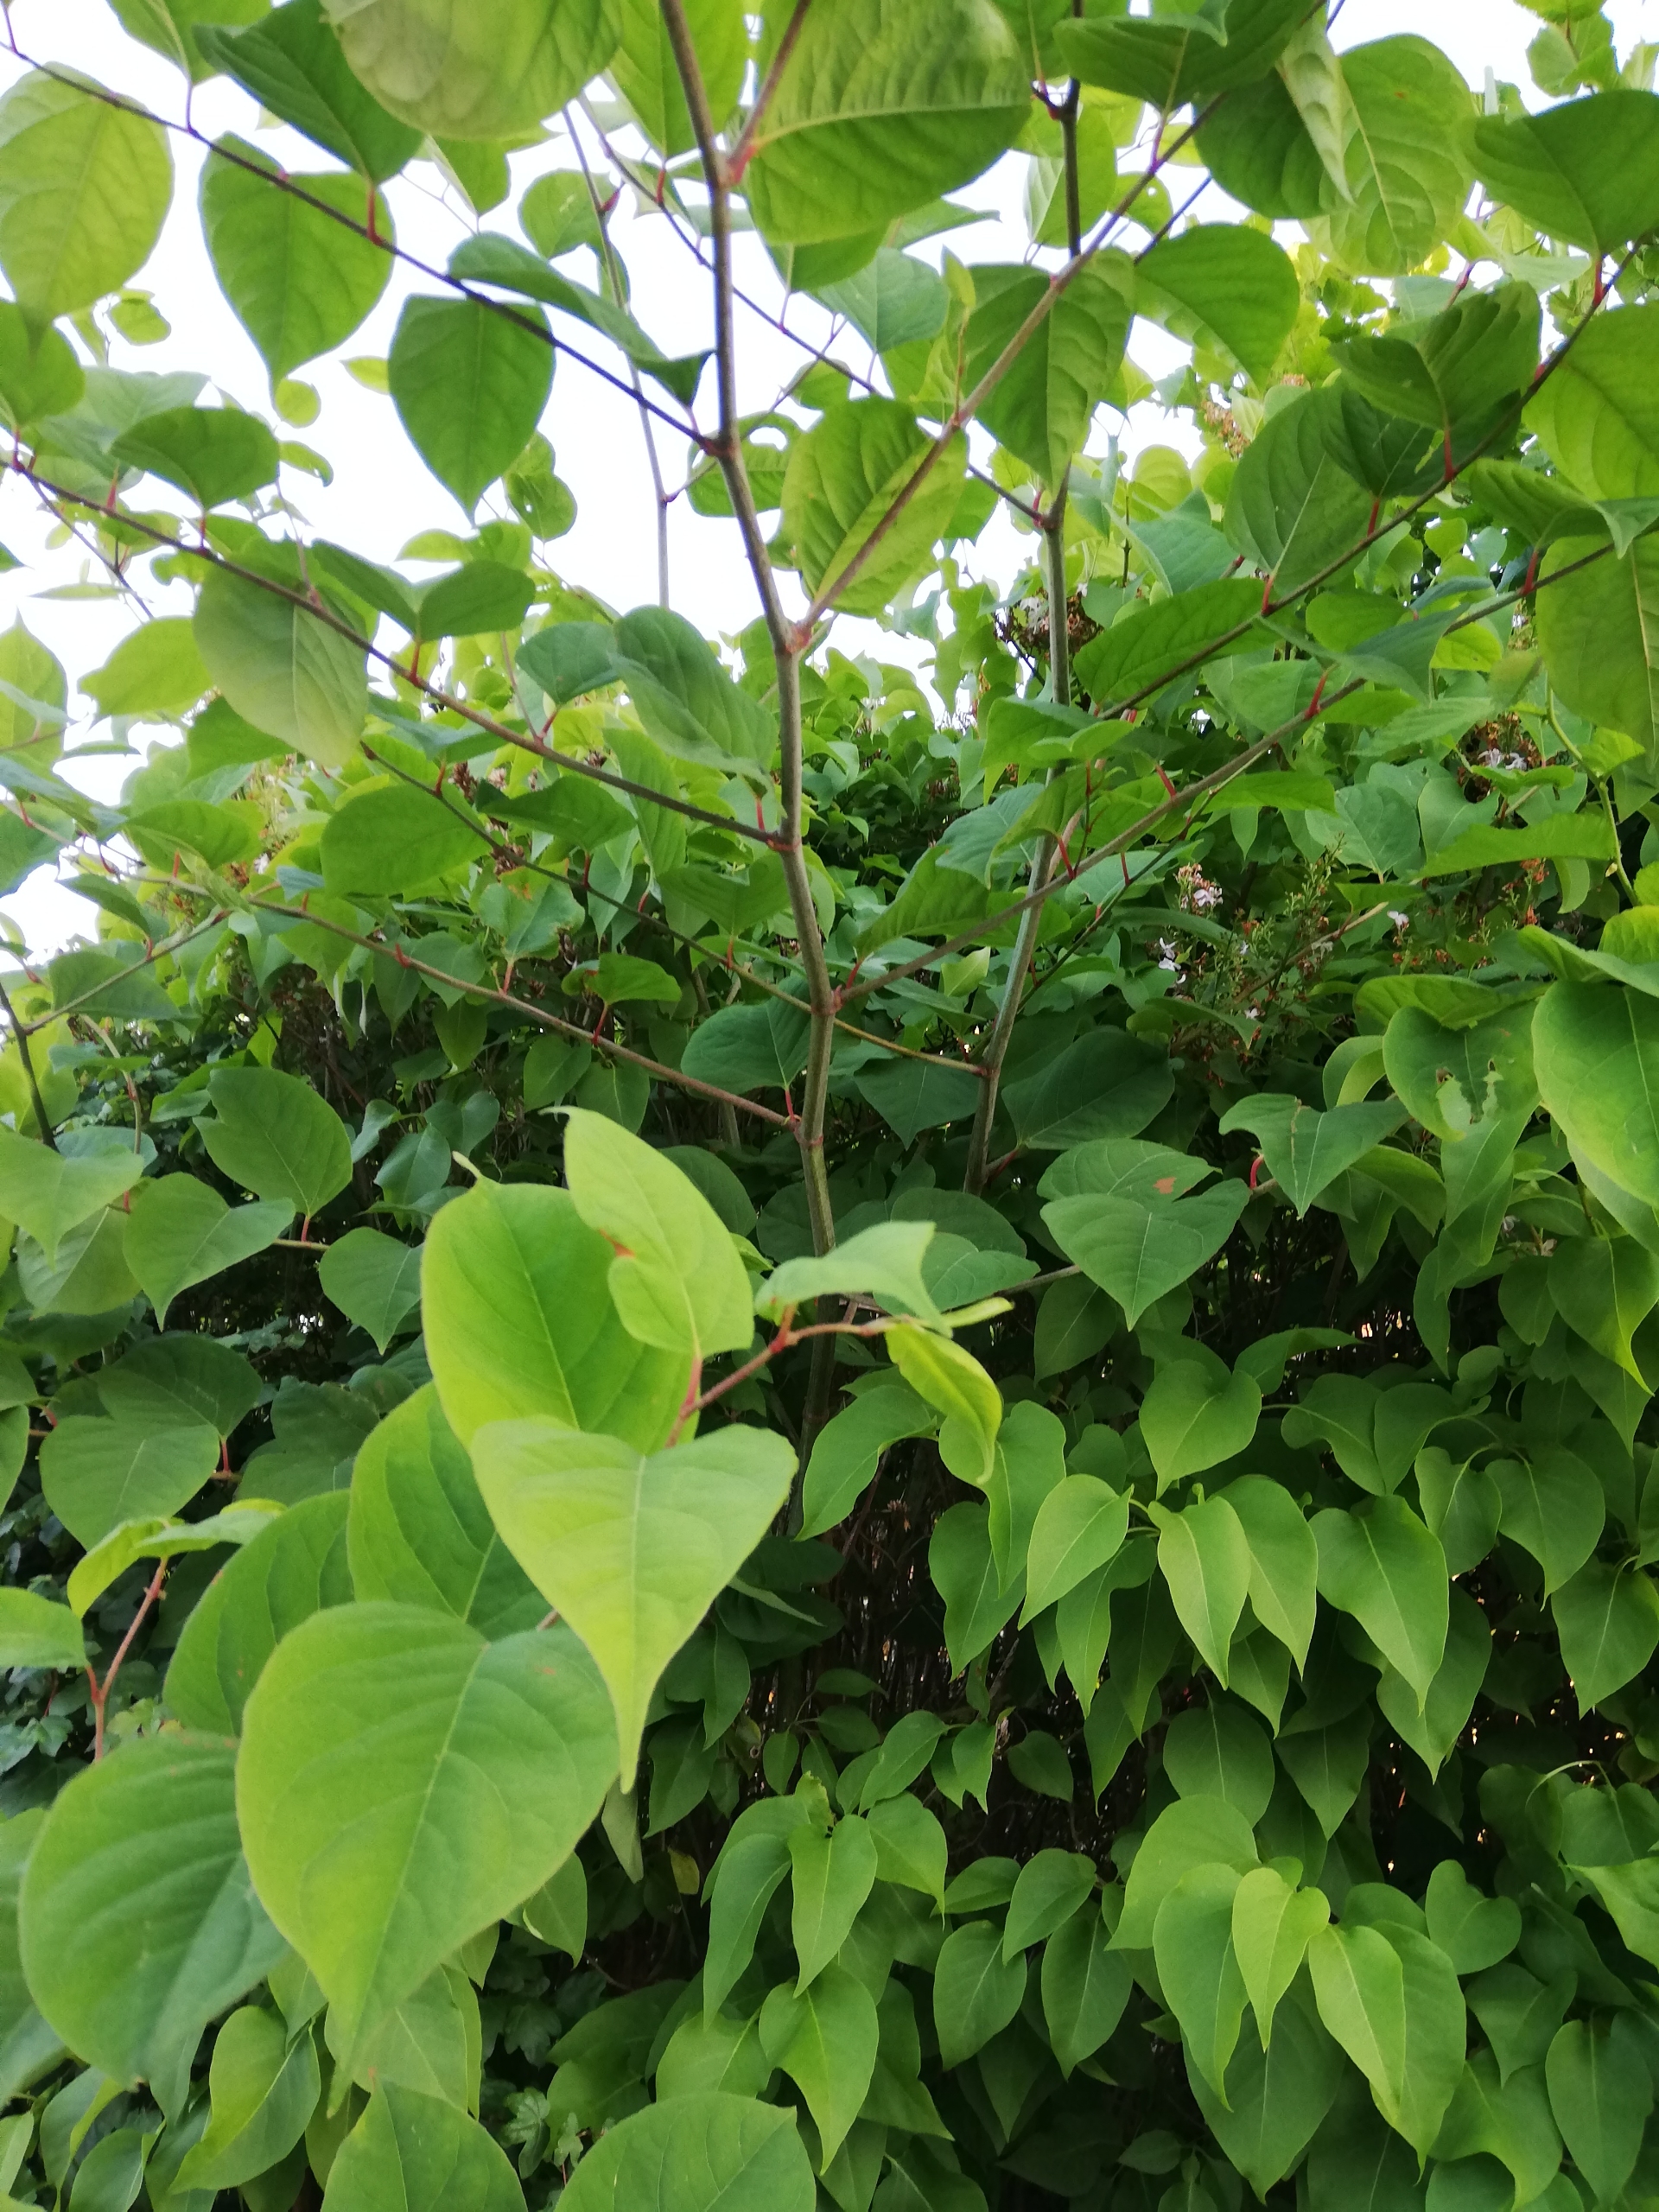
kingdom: Plantae
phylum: Tracheophyta
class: Magnoliopsida
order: Caryophyllales
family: Polygonaceae
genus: Reynoutria
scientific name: Reynoutria japonica
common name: Japan-pileurt
